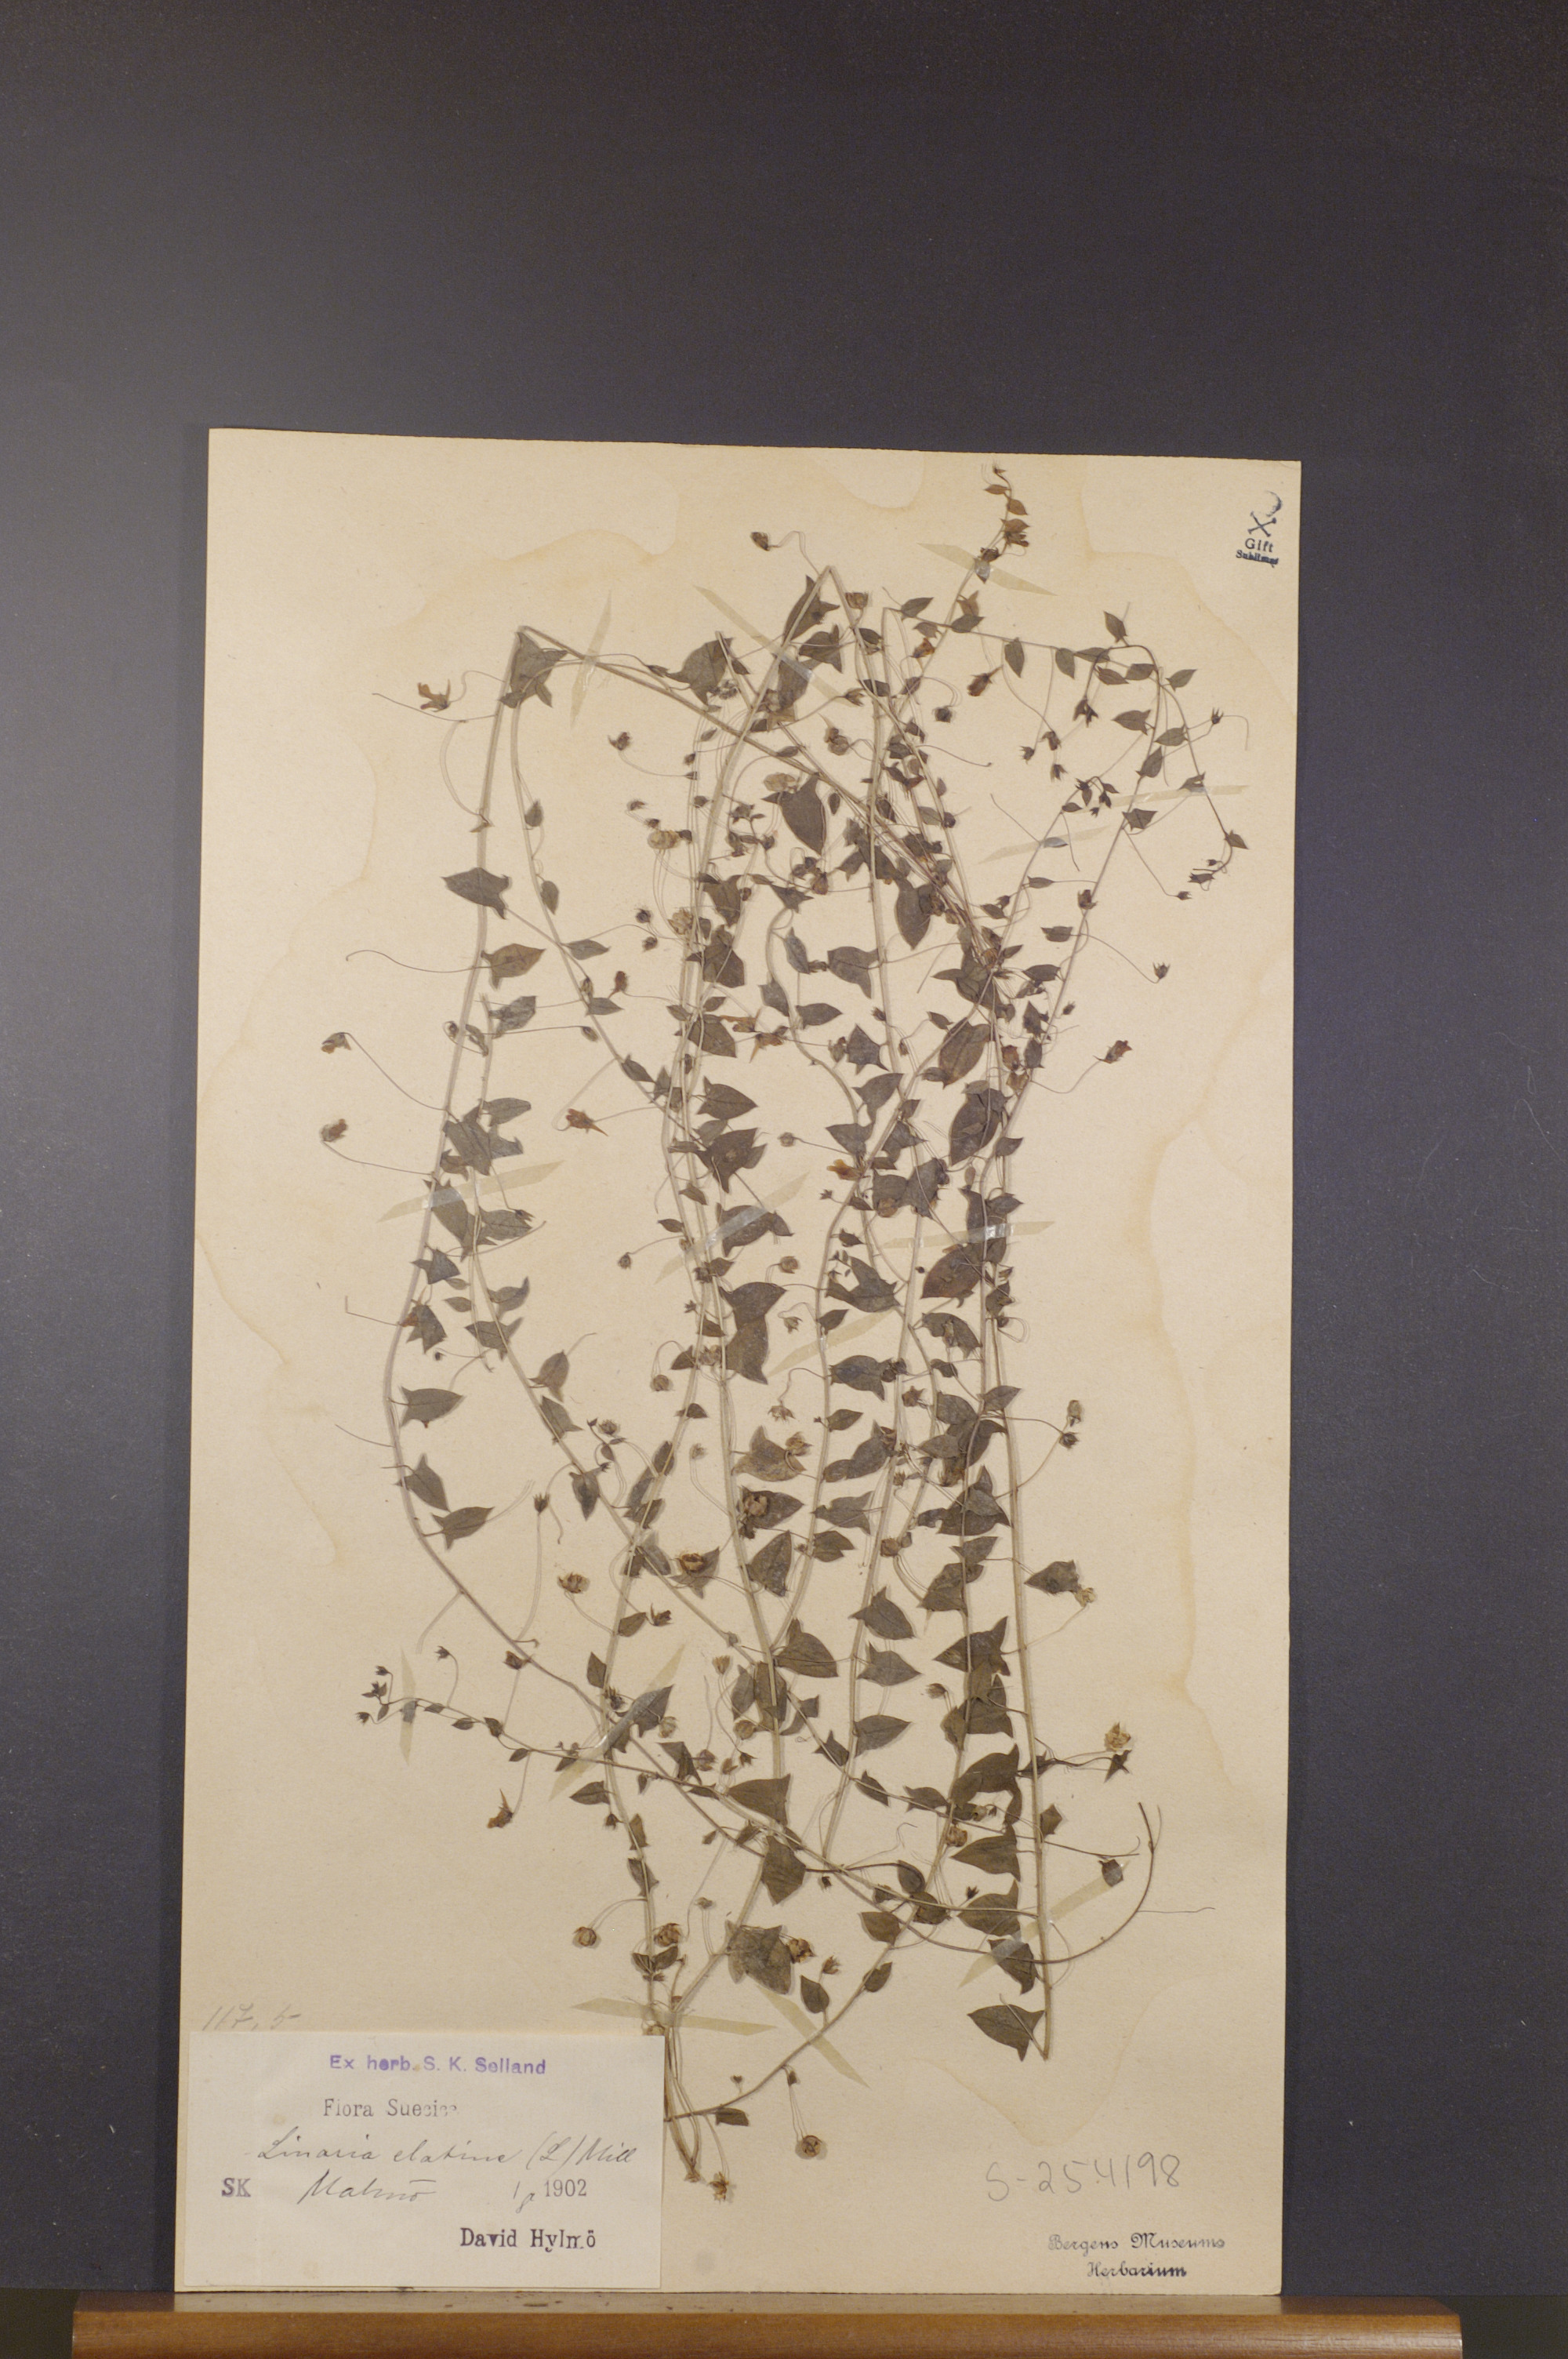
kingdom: Plantae
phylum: Tracheophyta
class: Magnoliopsida
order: Lamiales
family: Plantaginaceae
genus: Kickxia
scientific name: Kickxia elatine
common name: Sharp-leaved fluellen
